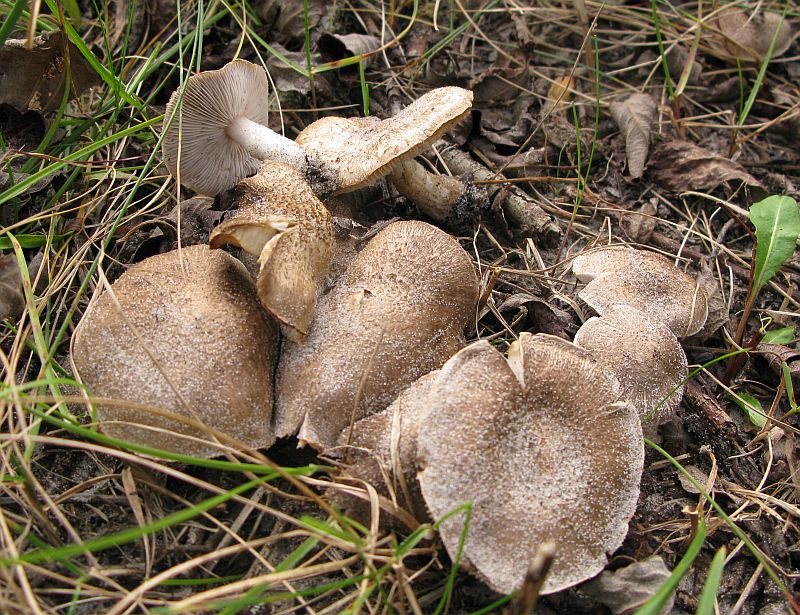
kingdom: Fungi
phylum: Basidiomycota
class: Agaricomycetes
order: Agaricales
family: Tricholomataceae
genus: Tricholoma
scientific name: Tricholoma cingulatum
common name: ring-ridderhat
